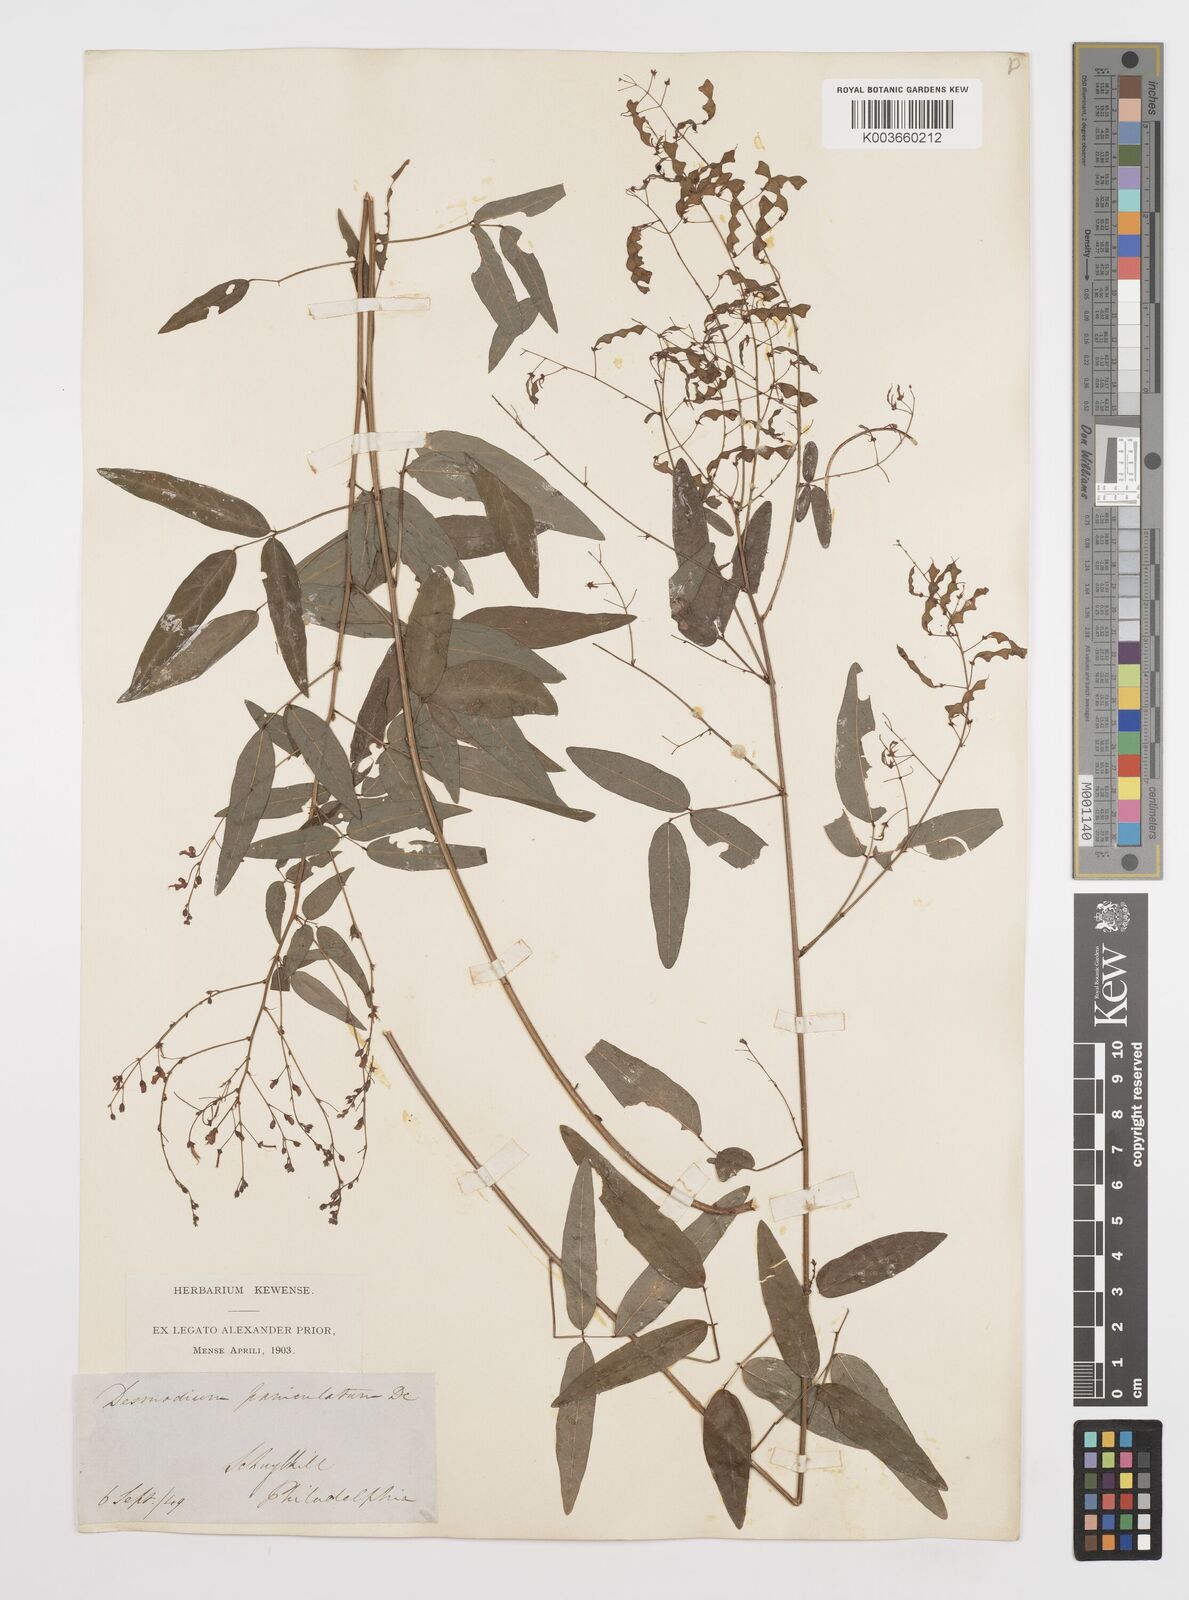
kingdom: Plantae
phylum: Tracheophyta
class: Magnoliopsida
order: Fabales
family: Fabaceae
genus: Desmodium
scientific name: Desmodium paniculatum
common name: Panicled tick-clover
